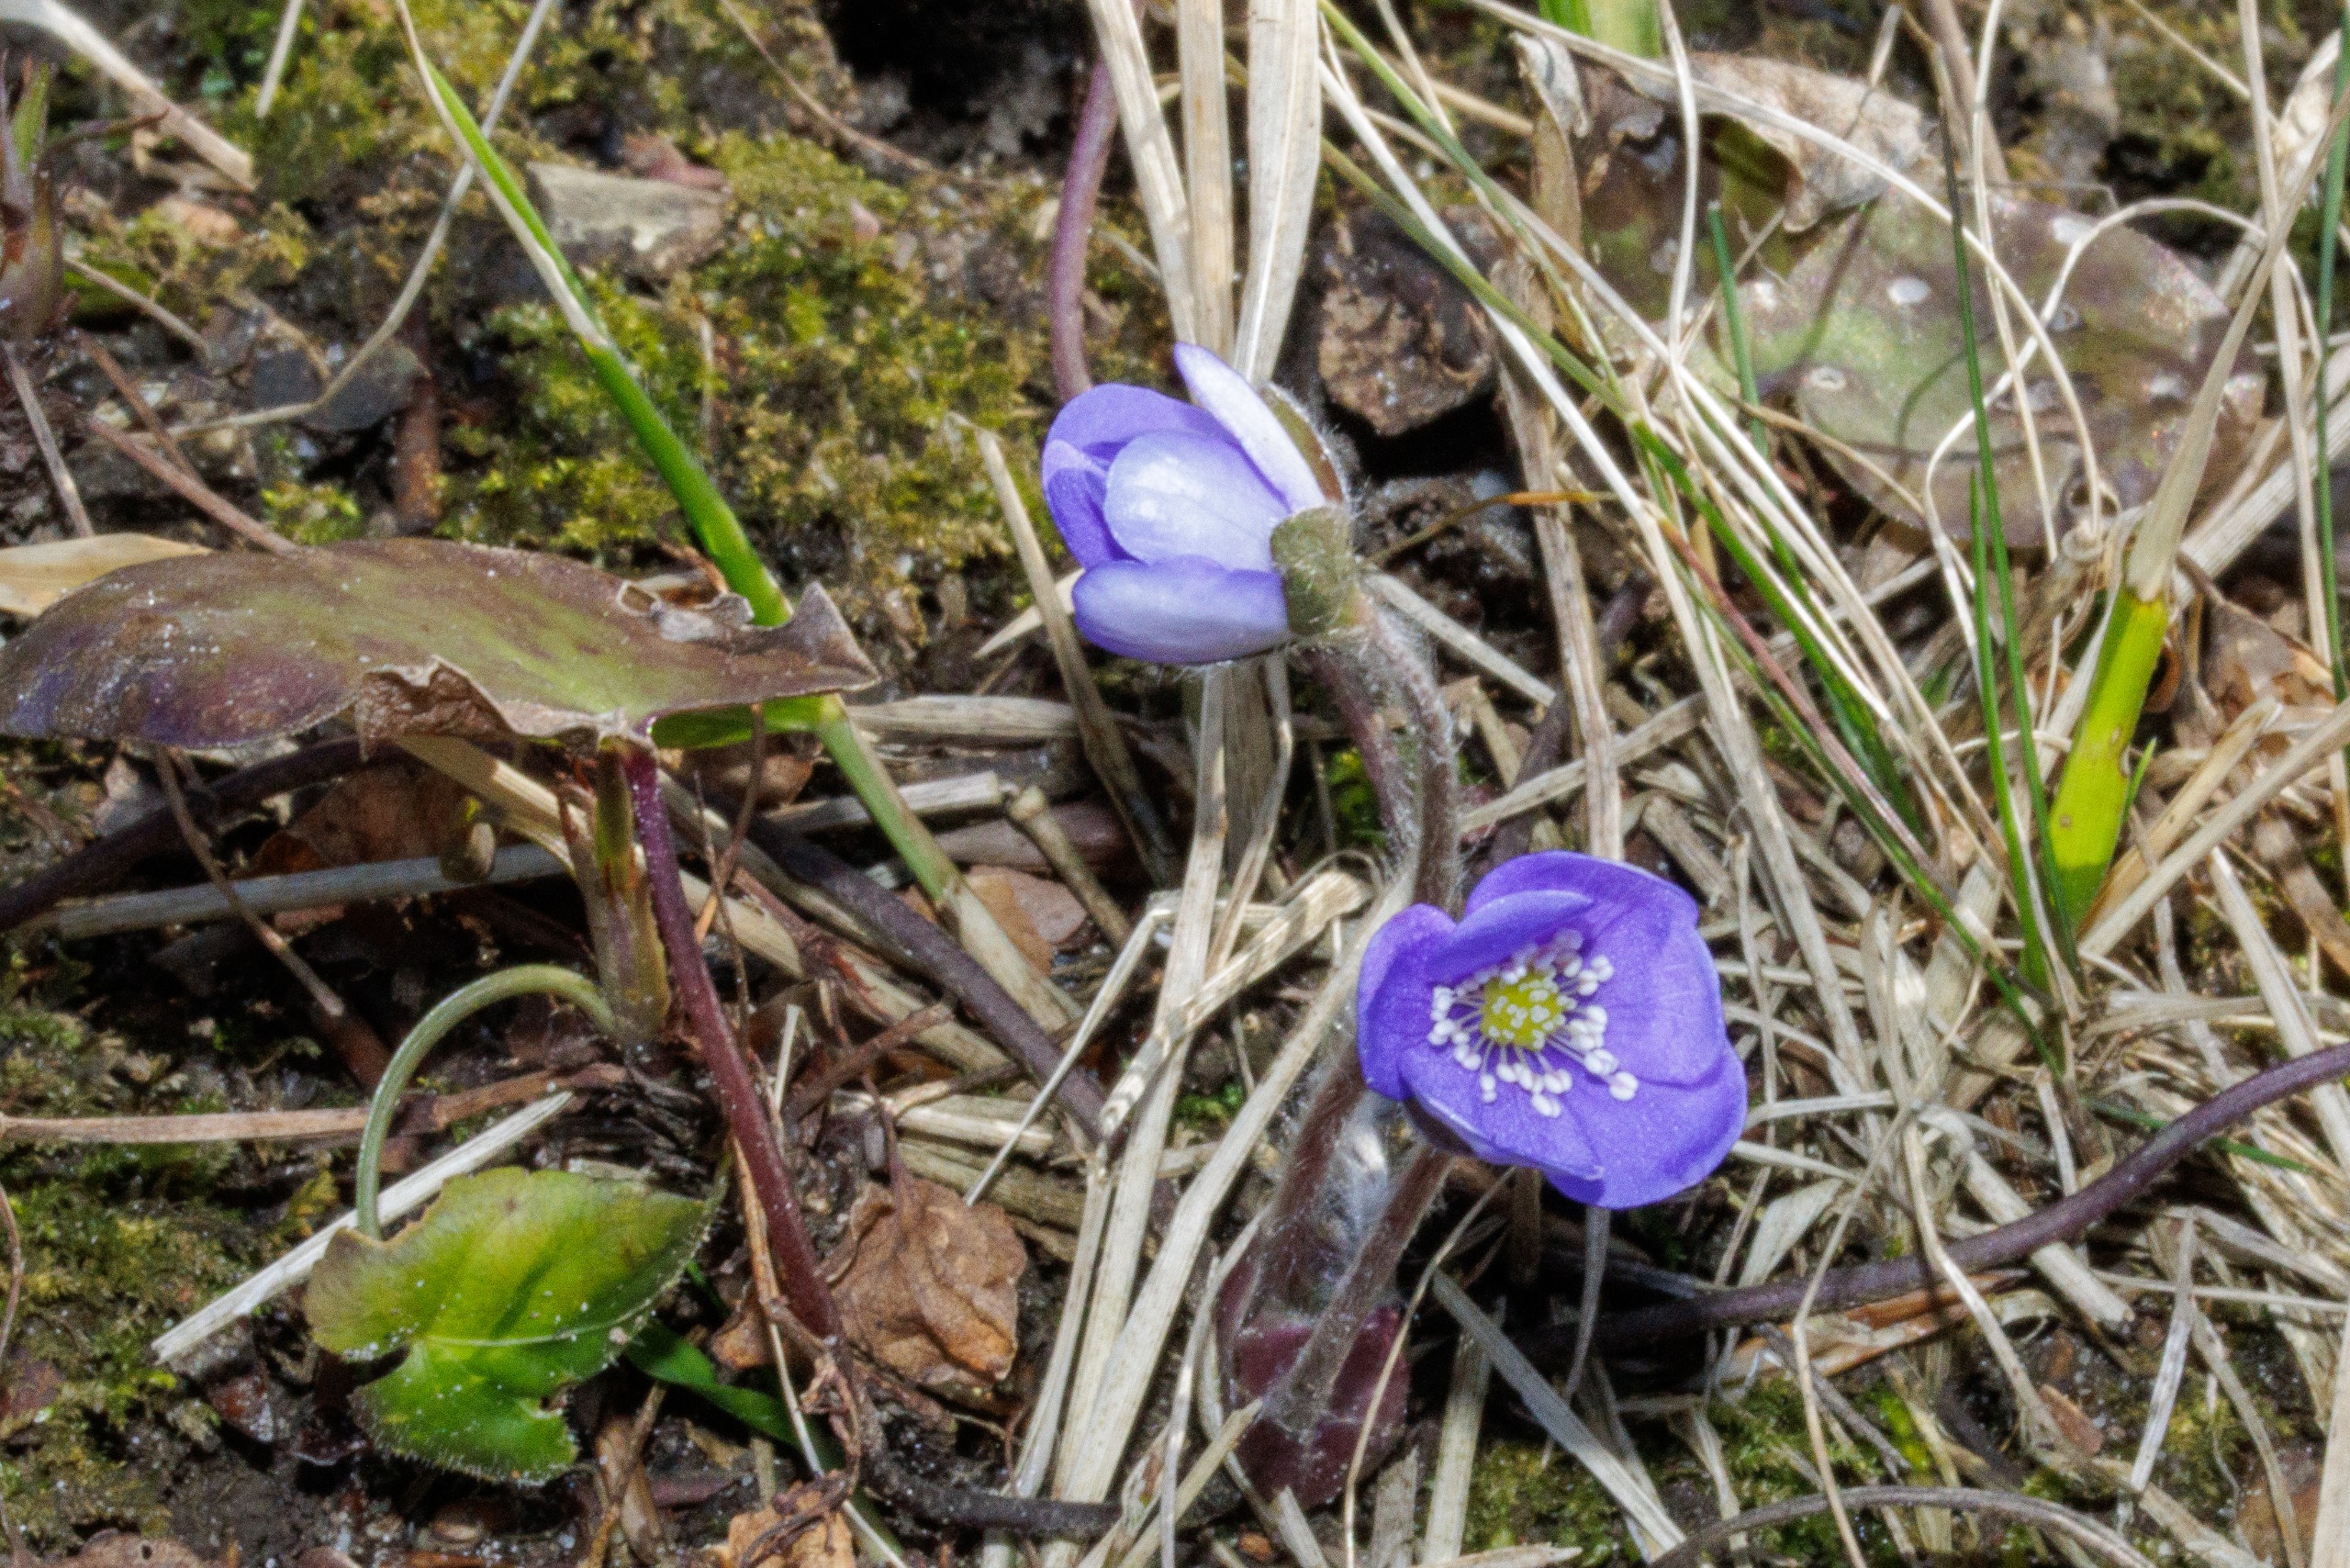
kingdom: Plantae
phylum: Tracheophyta
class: Magnoliopsida
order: Ranunculales
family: Ranunculaceae
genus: Hepatica
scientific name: Hepatica nobilis
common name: Blå anemone
